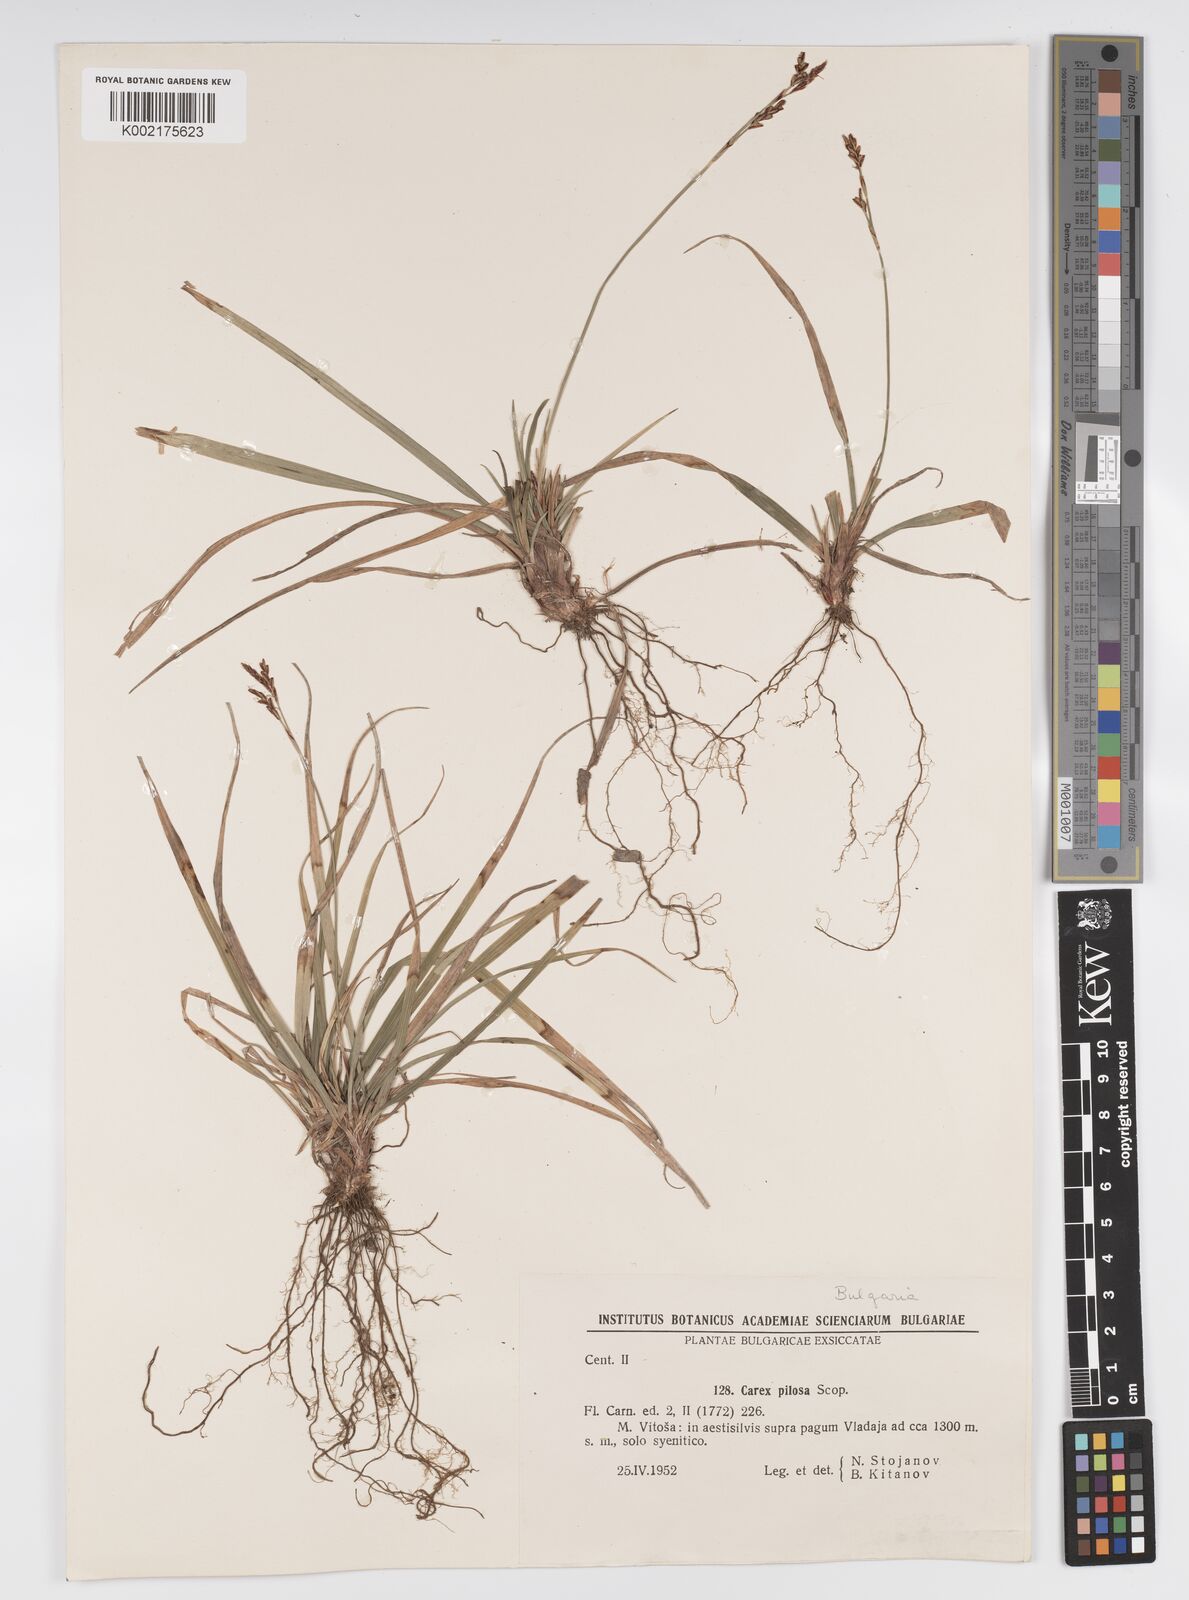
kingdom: Plantae
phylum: Tracheophyta
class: Liliopsida
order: Poales
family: Cyperaceae
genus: Carex
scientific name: Carex pilosa
